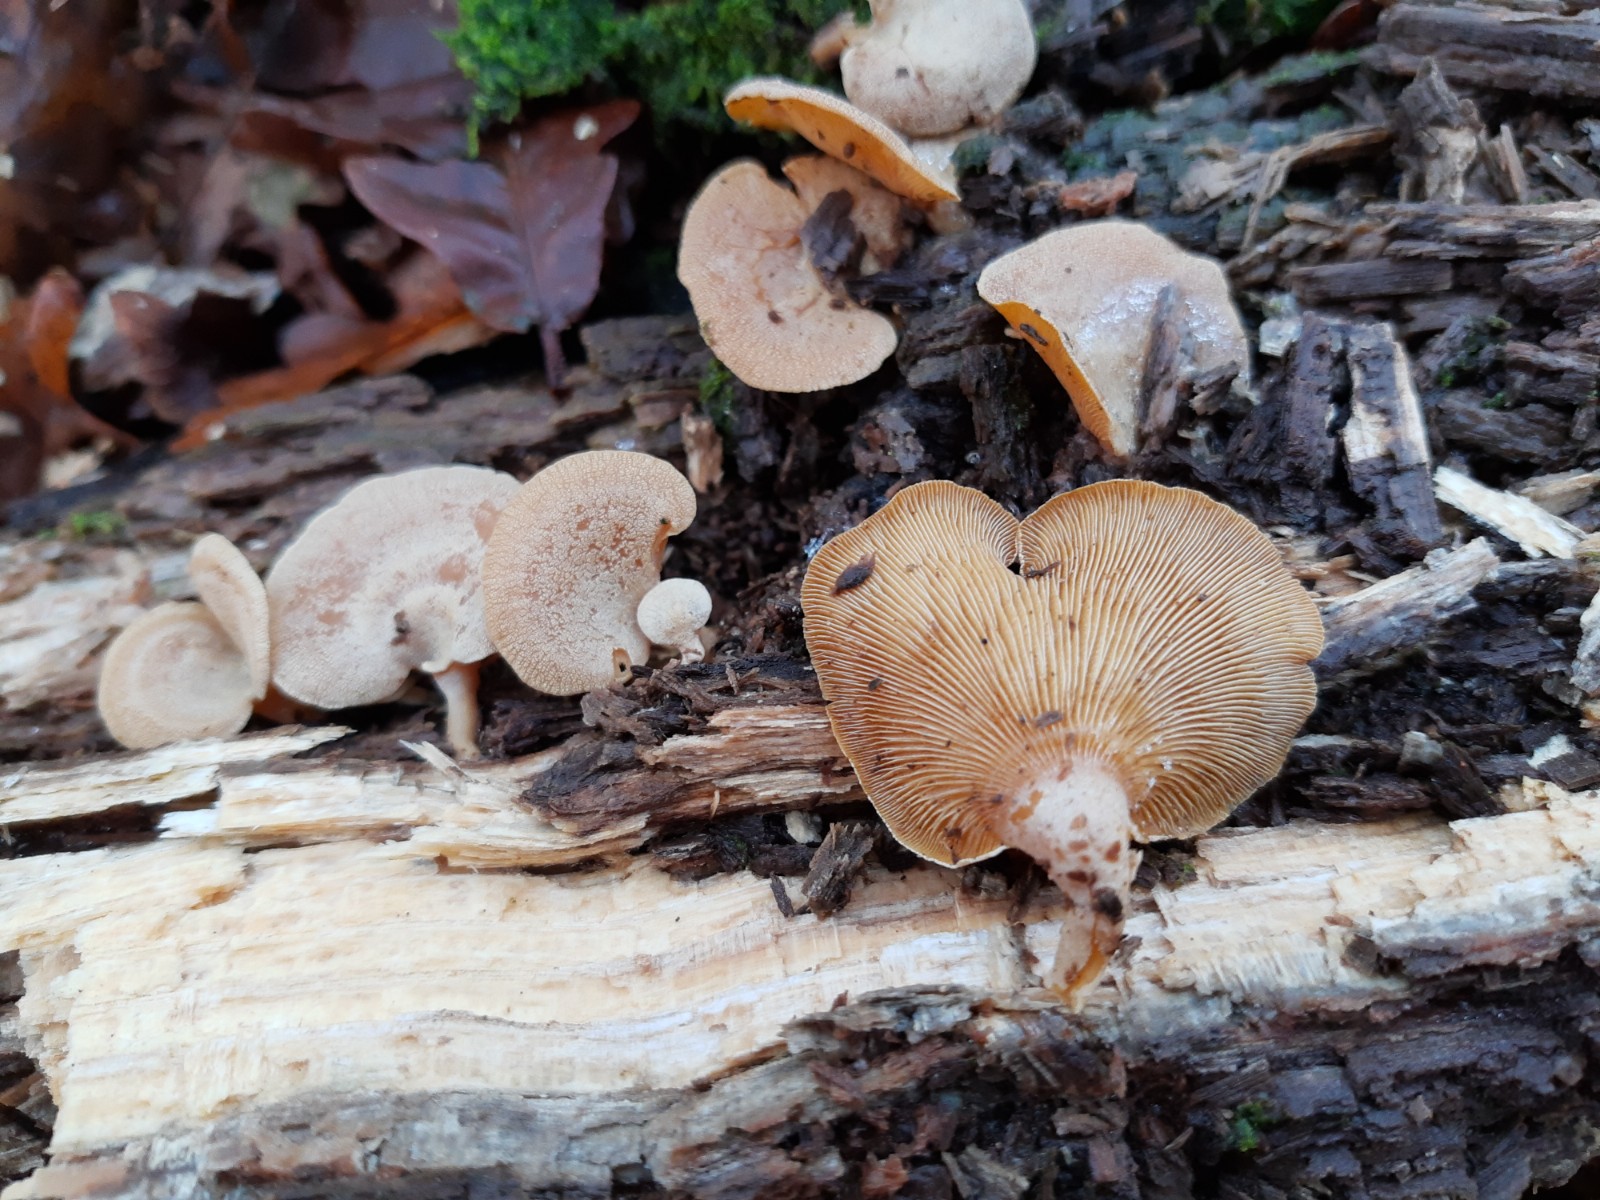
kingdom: Fungi
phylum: Basidiomycota
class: Agaricomycetes
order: Agaricales
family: Mycenaceae
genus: Panellus
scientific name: Panellus stipticus
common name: kliddet epaulethat
